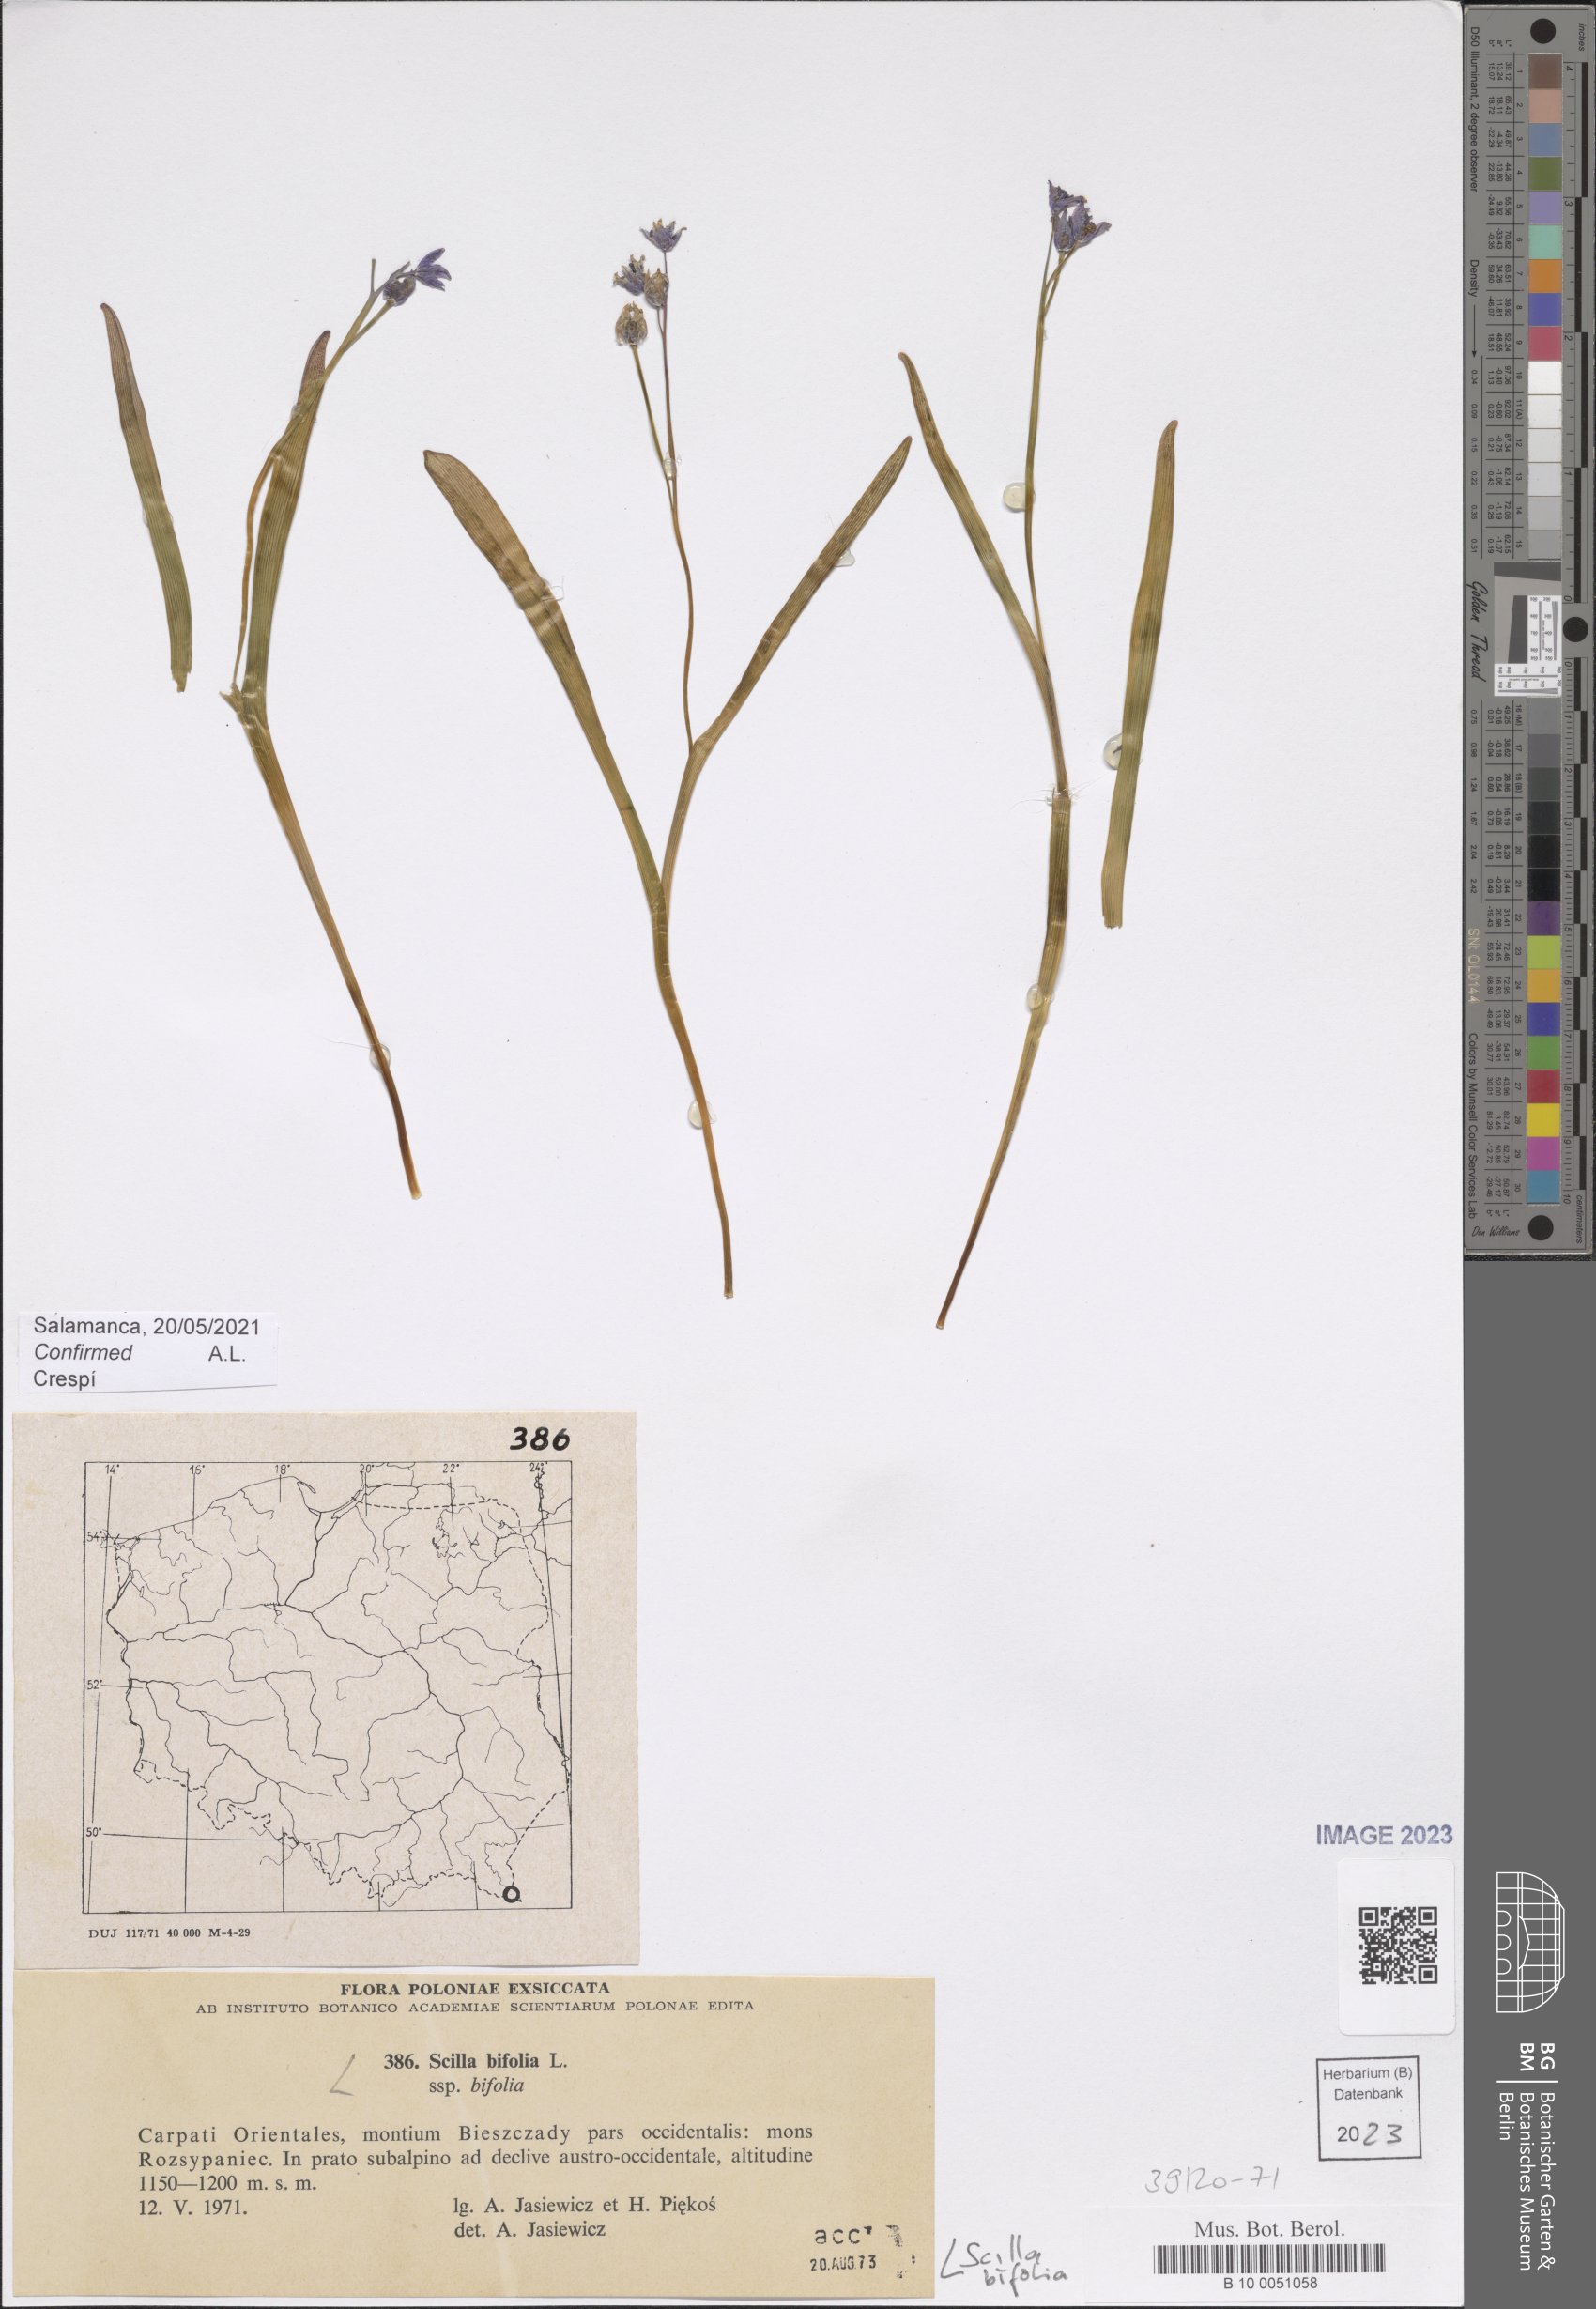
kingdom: Plantae
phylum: Tracheophyta
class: Liliopsida
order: Asparagales
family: Asparagaceae
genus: Scilla
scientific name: Scilla bifolia
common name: Alpine squill
